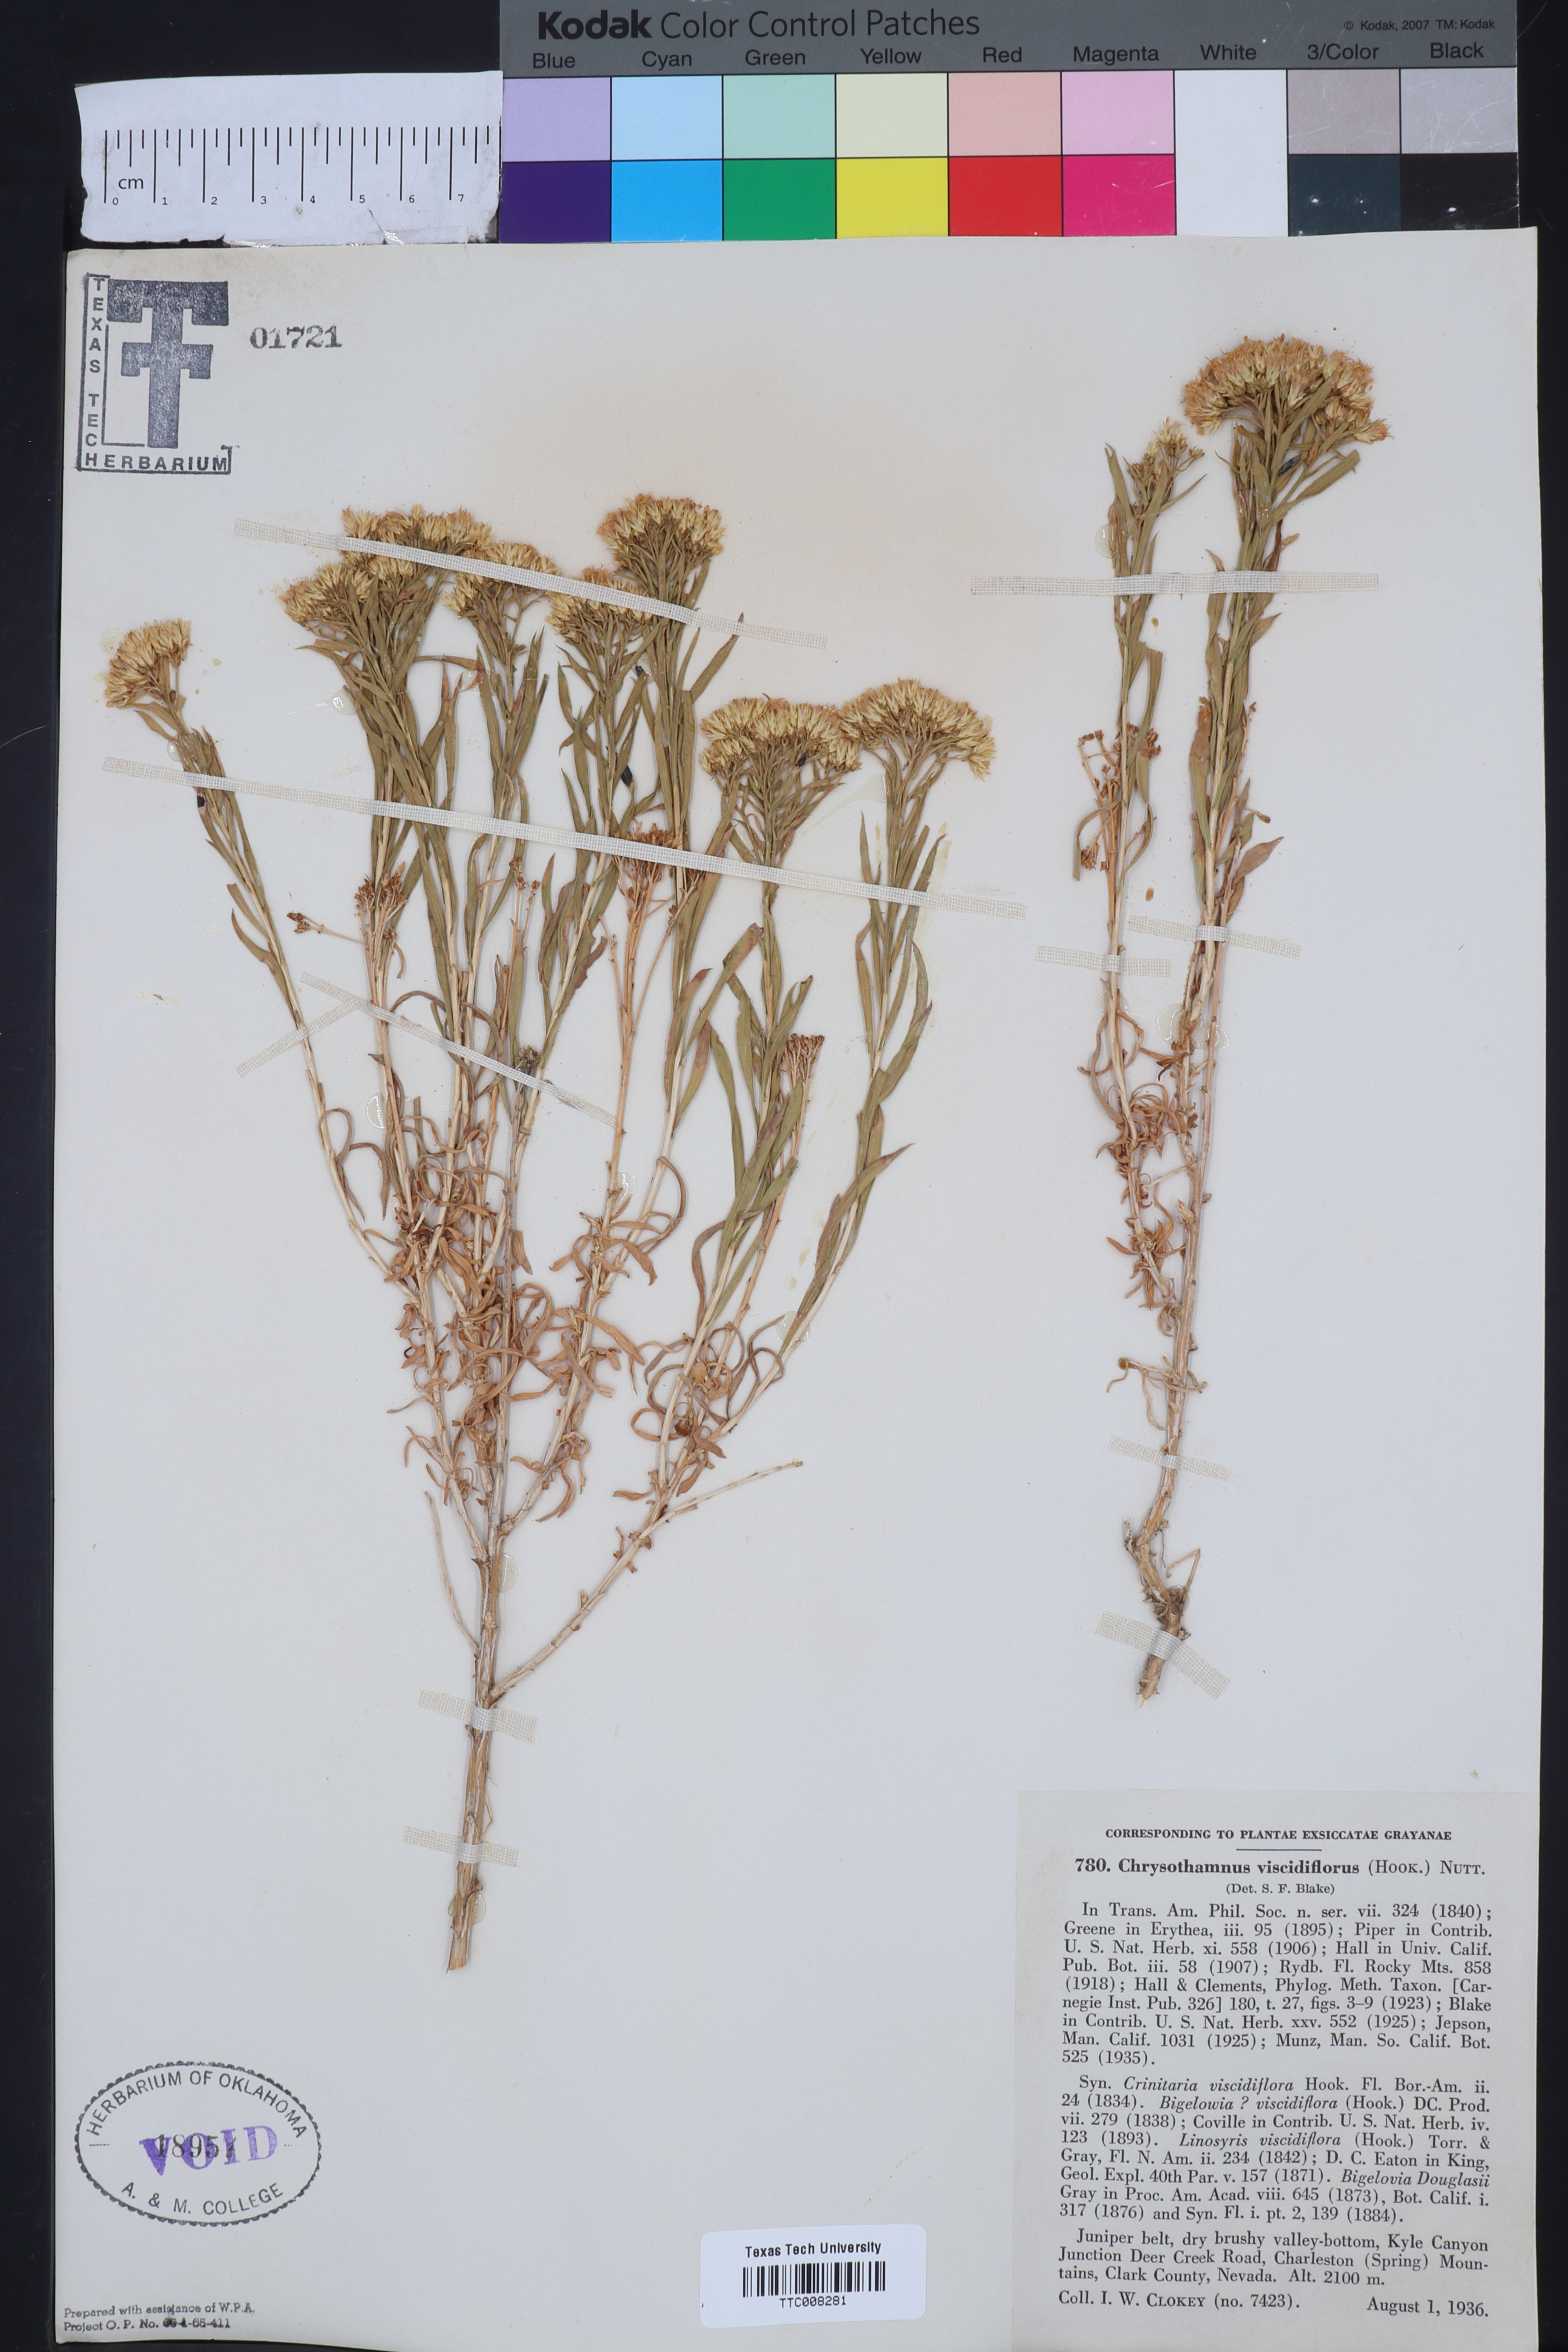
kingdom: Plantae
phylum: Tracheophyta
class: Magnoliopsida
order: Asterales
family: Asteraceae
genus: Chrysothamnus
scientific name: Chrysothamnus viscidiflorus
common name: Yellow rabbitbrush
